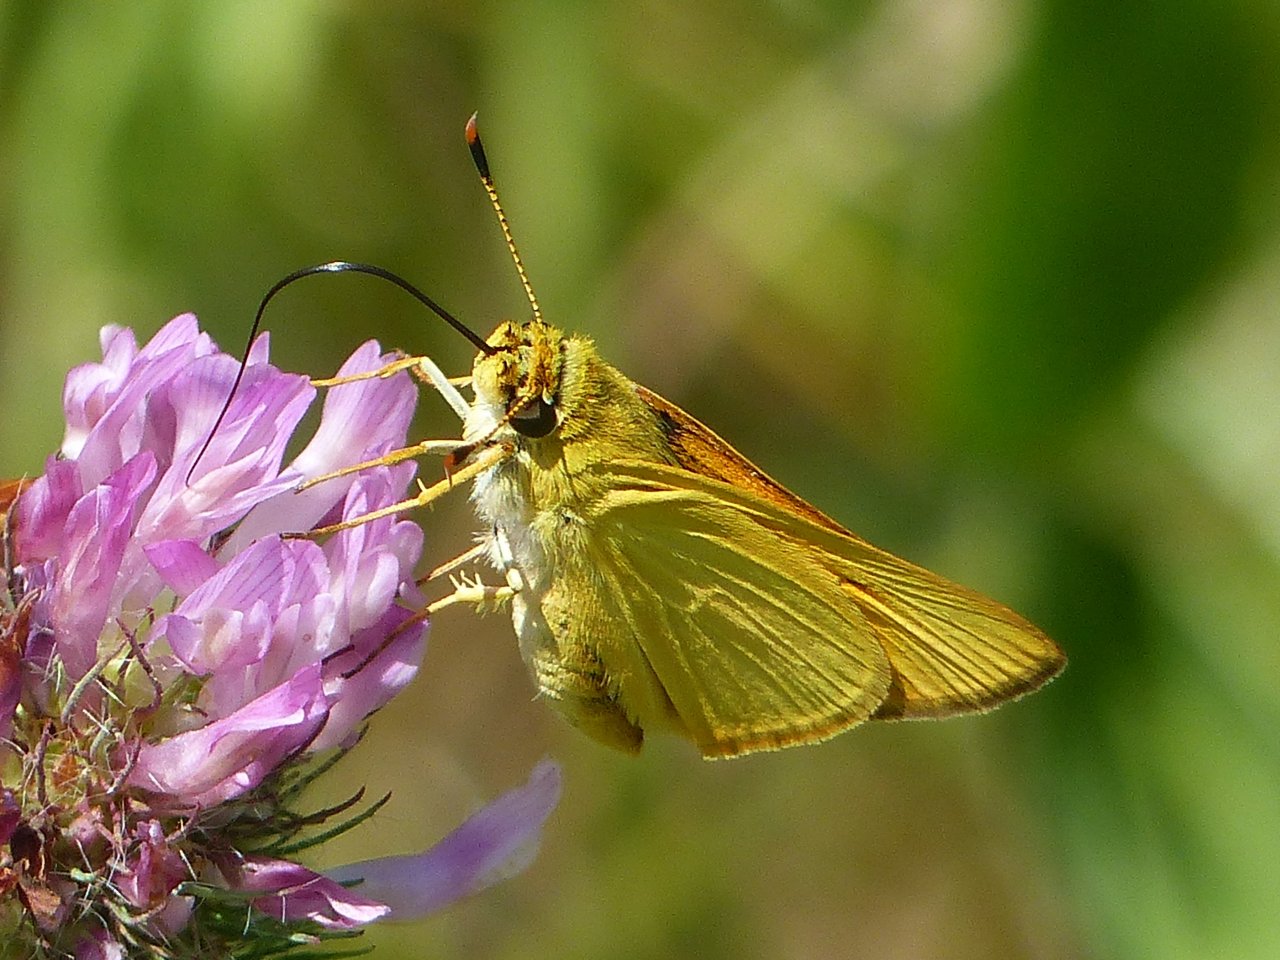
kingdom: Animalia
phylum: Arthropoda
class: Insecta
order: Lepidoptera
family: Hesperiidae
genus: Atrytone
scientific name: Atrytone delaware
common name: Delaware Skipper
